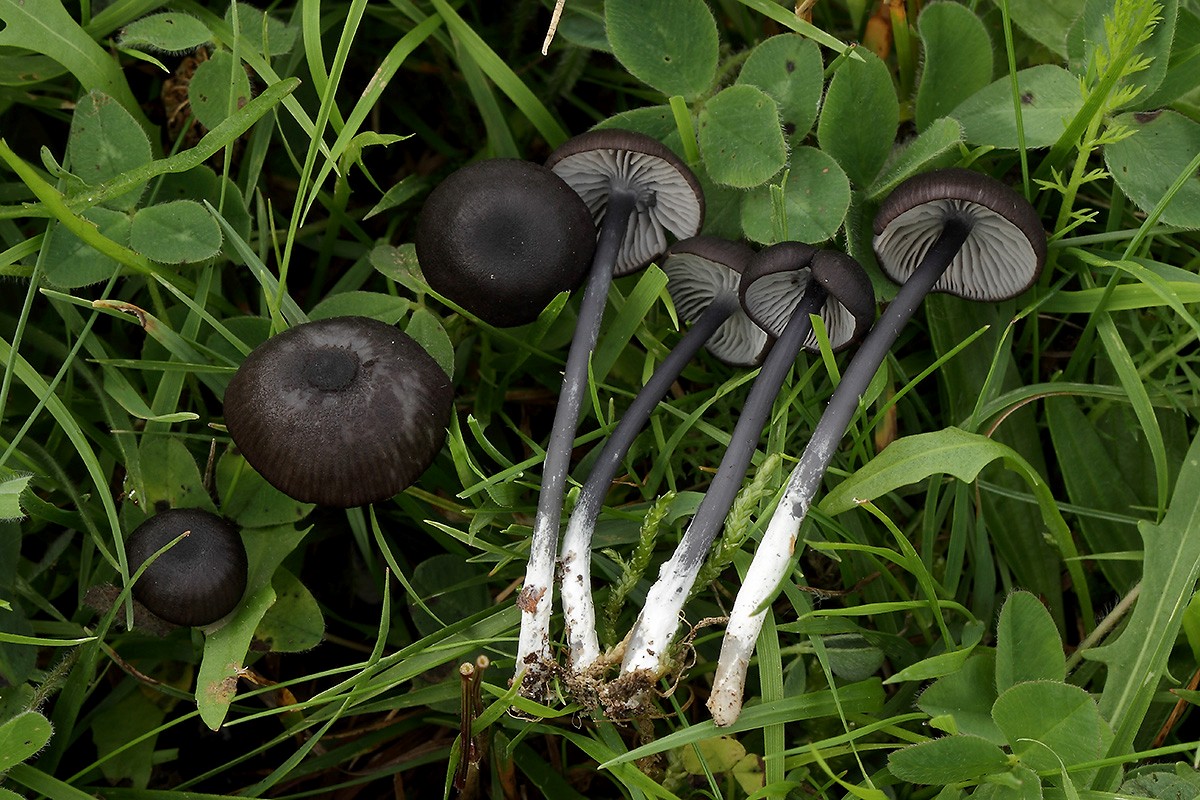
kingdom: Fungi
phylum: Basidiomycota
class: Agaricomycetes
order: Agaricales
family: Entolomataceae
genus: Entoloma
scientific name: Entoloma chalybeum
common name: blåbladet rødblad
